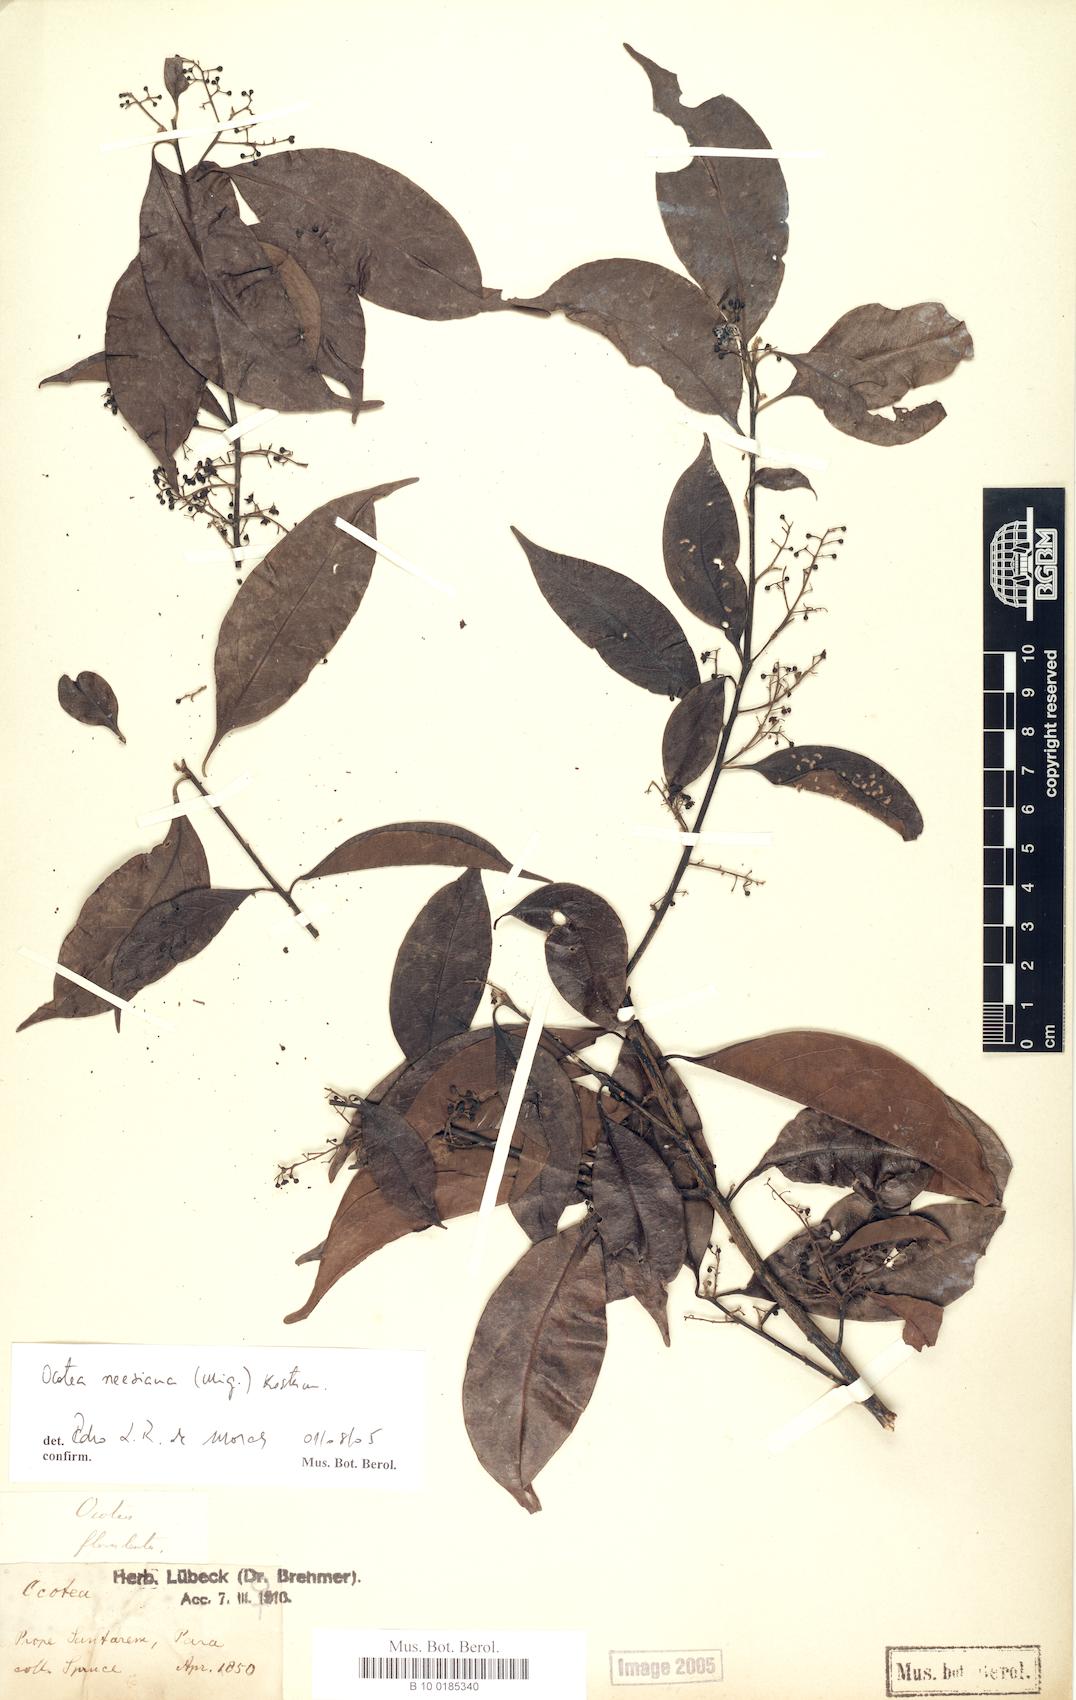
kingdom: Plantae
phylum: Tracheophyta
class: Magnoliopsida
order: Laurales
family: Lauraceae
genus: Ocotea
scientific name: Ocotea neesiana
